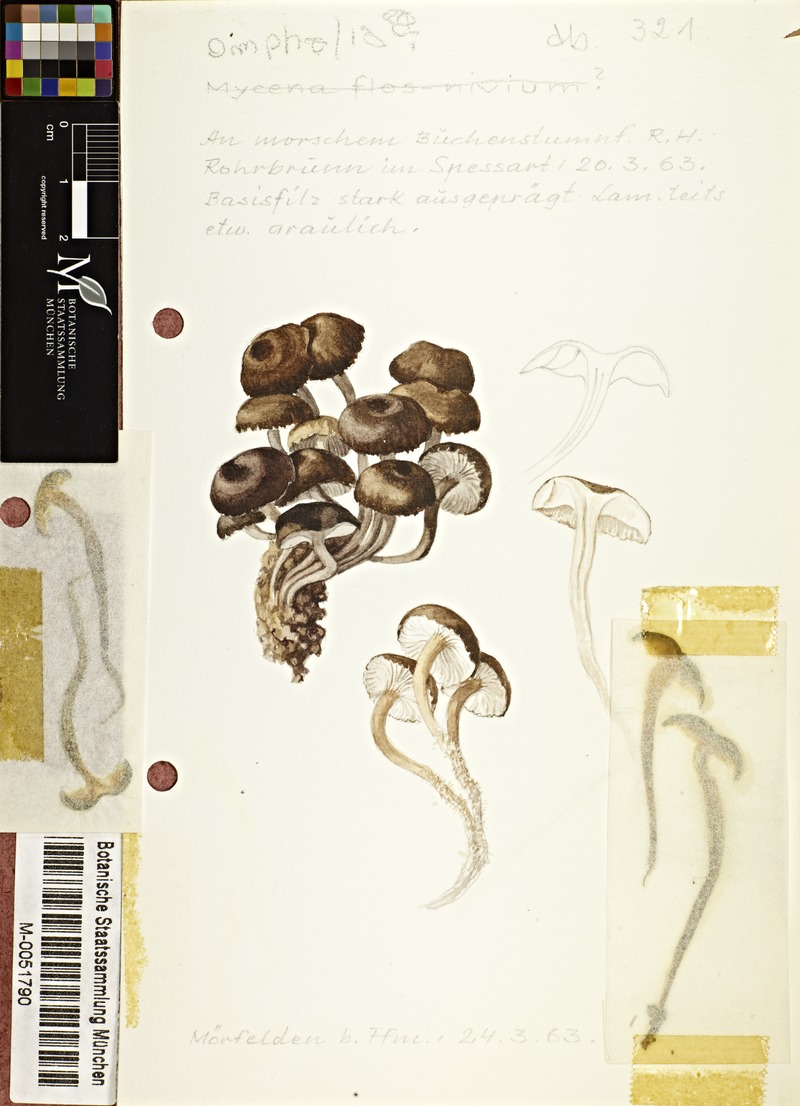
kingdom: Fungi
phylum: Basidiomycota
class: Agaricomycetes
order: Agaricales
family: Mycenaceae
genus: Mycena
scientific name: Mycena
